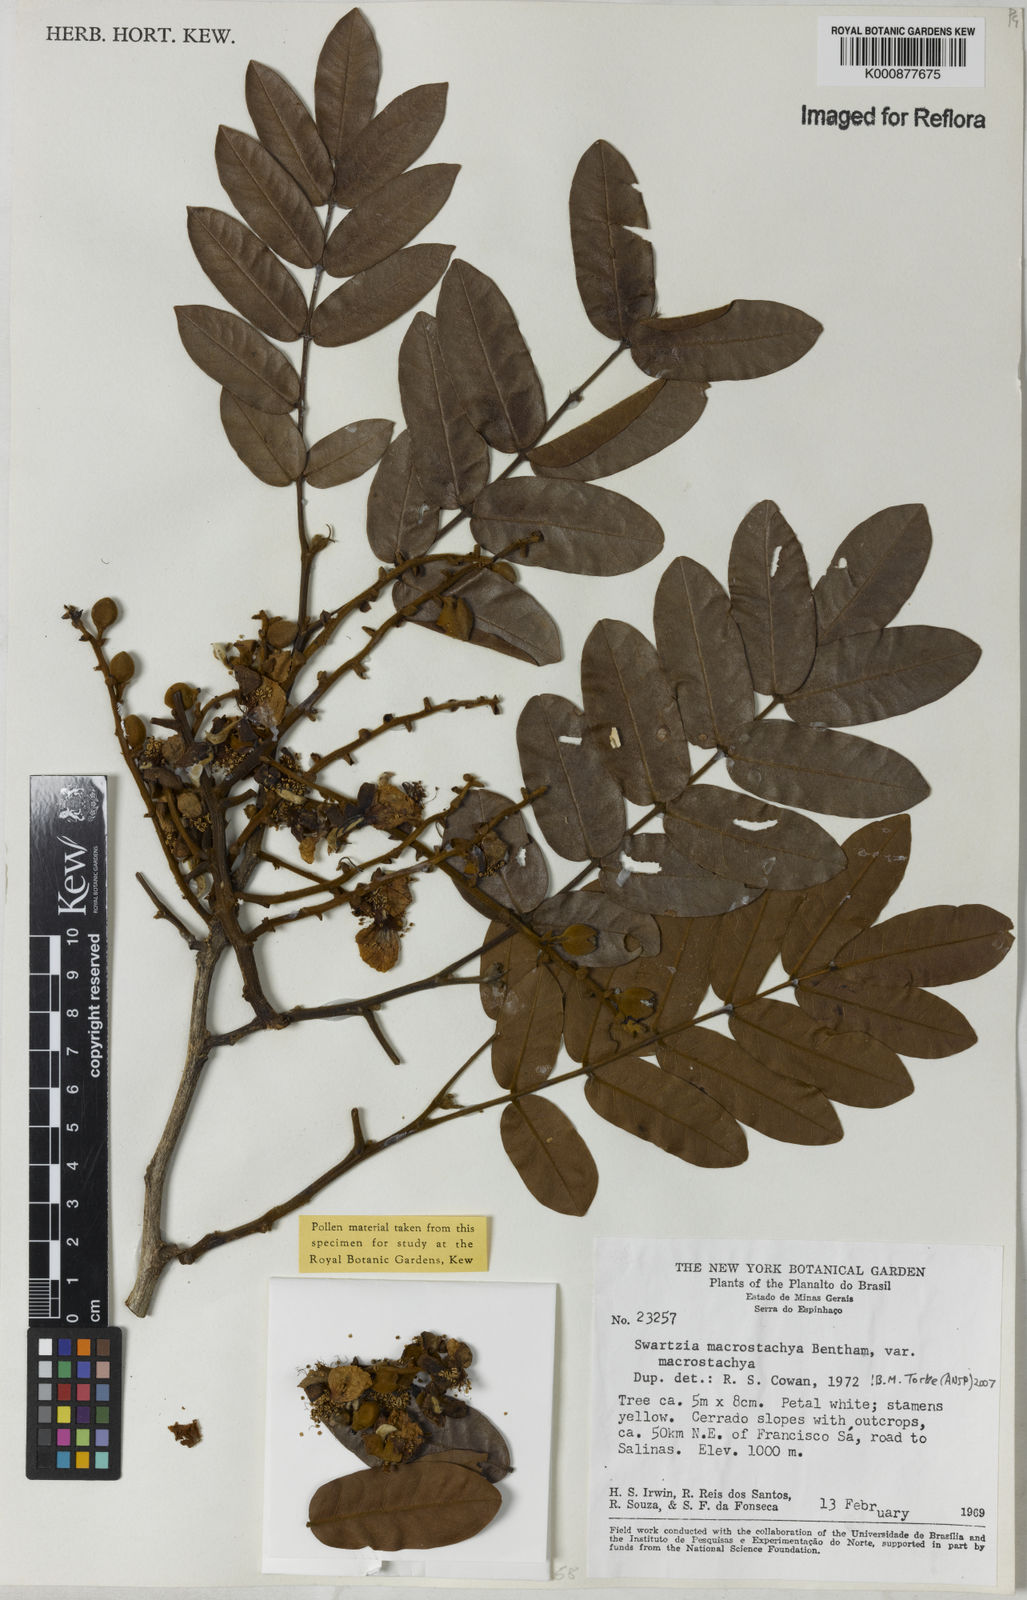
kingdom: Plantae
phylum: Tracheophyta
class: Magnoliopsida
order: Fabales
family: Fabaceae
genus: Swartzia
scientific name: Swartzia macrostachya
